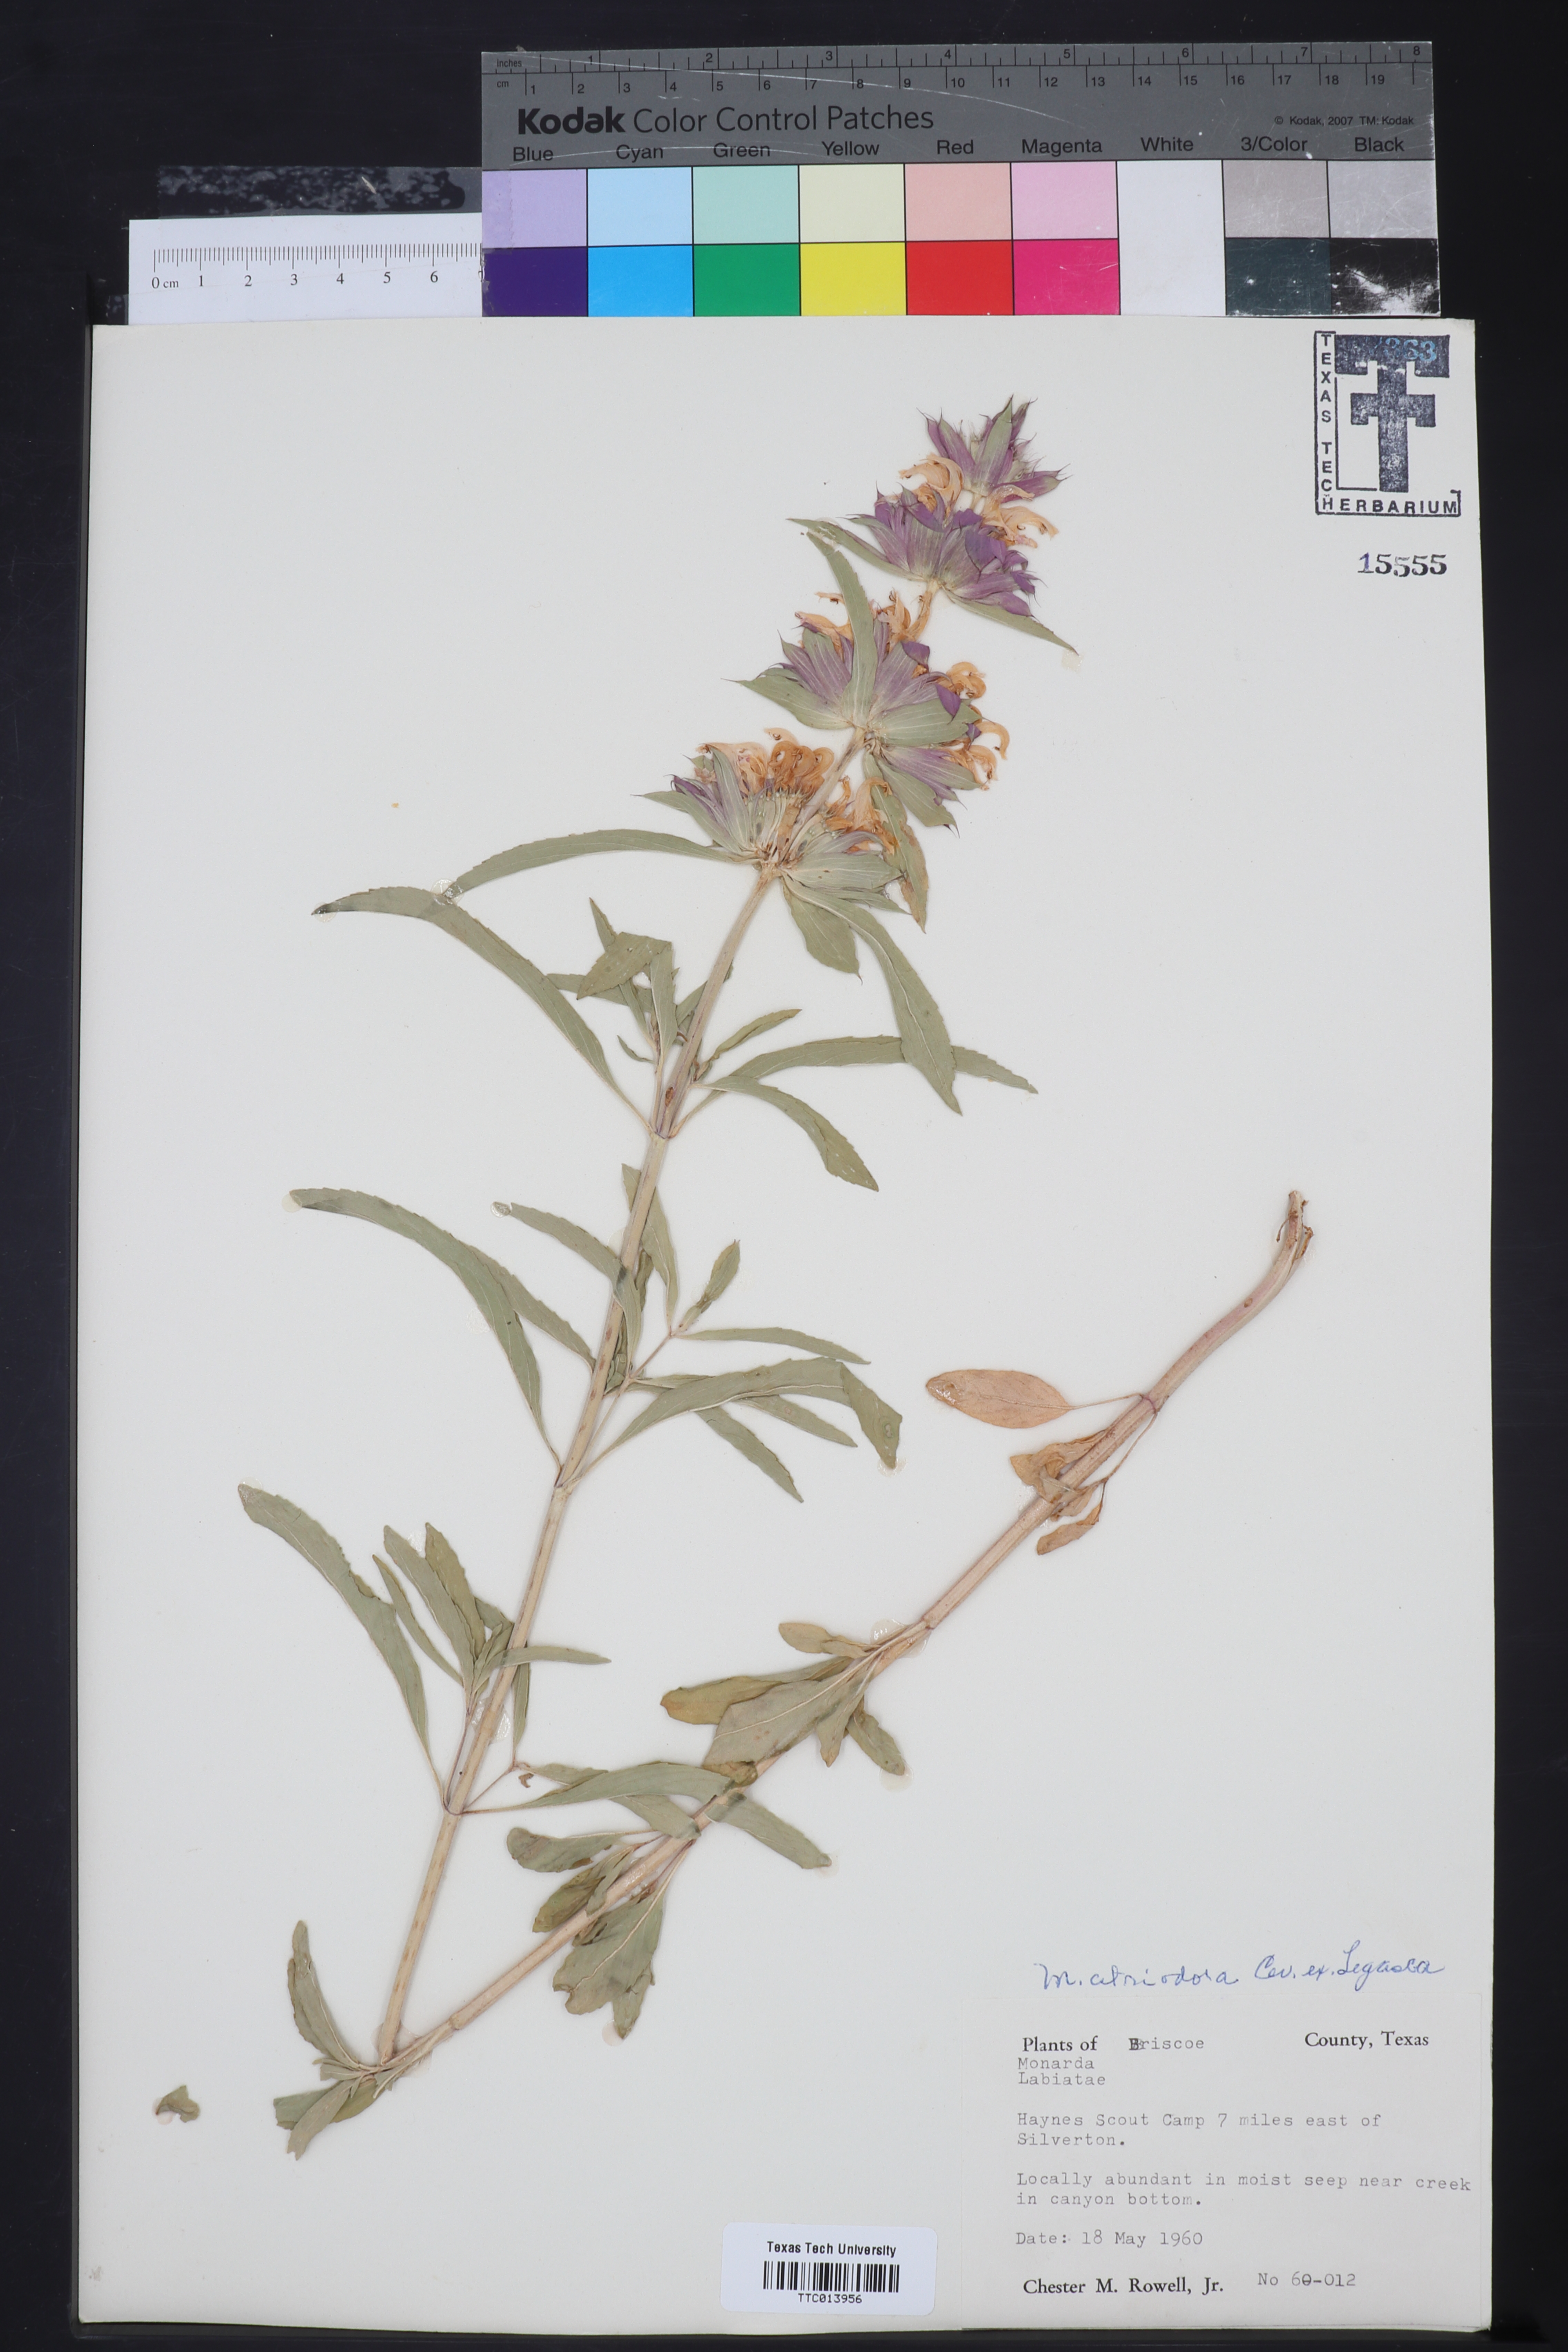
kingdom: Plantae
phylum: Tracheophyta
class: Magnoliopsida
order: Lamiales
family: Lamiaceae
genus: Monarda
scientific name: Monarda citriodora
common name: Lemon beebalm
